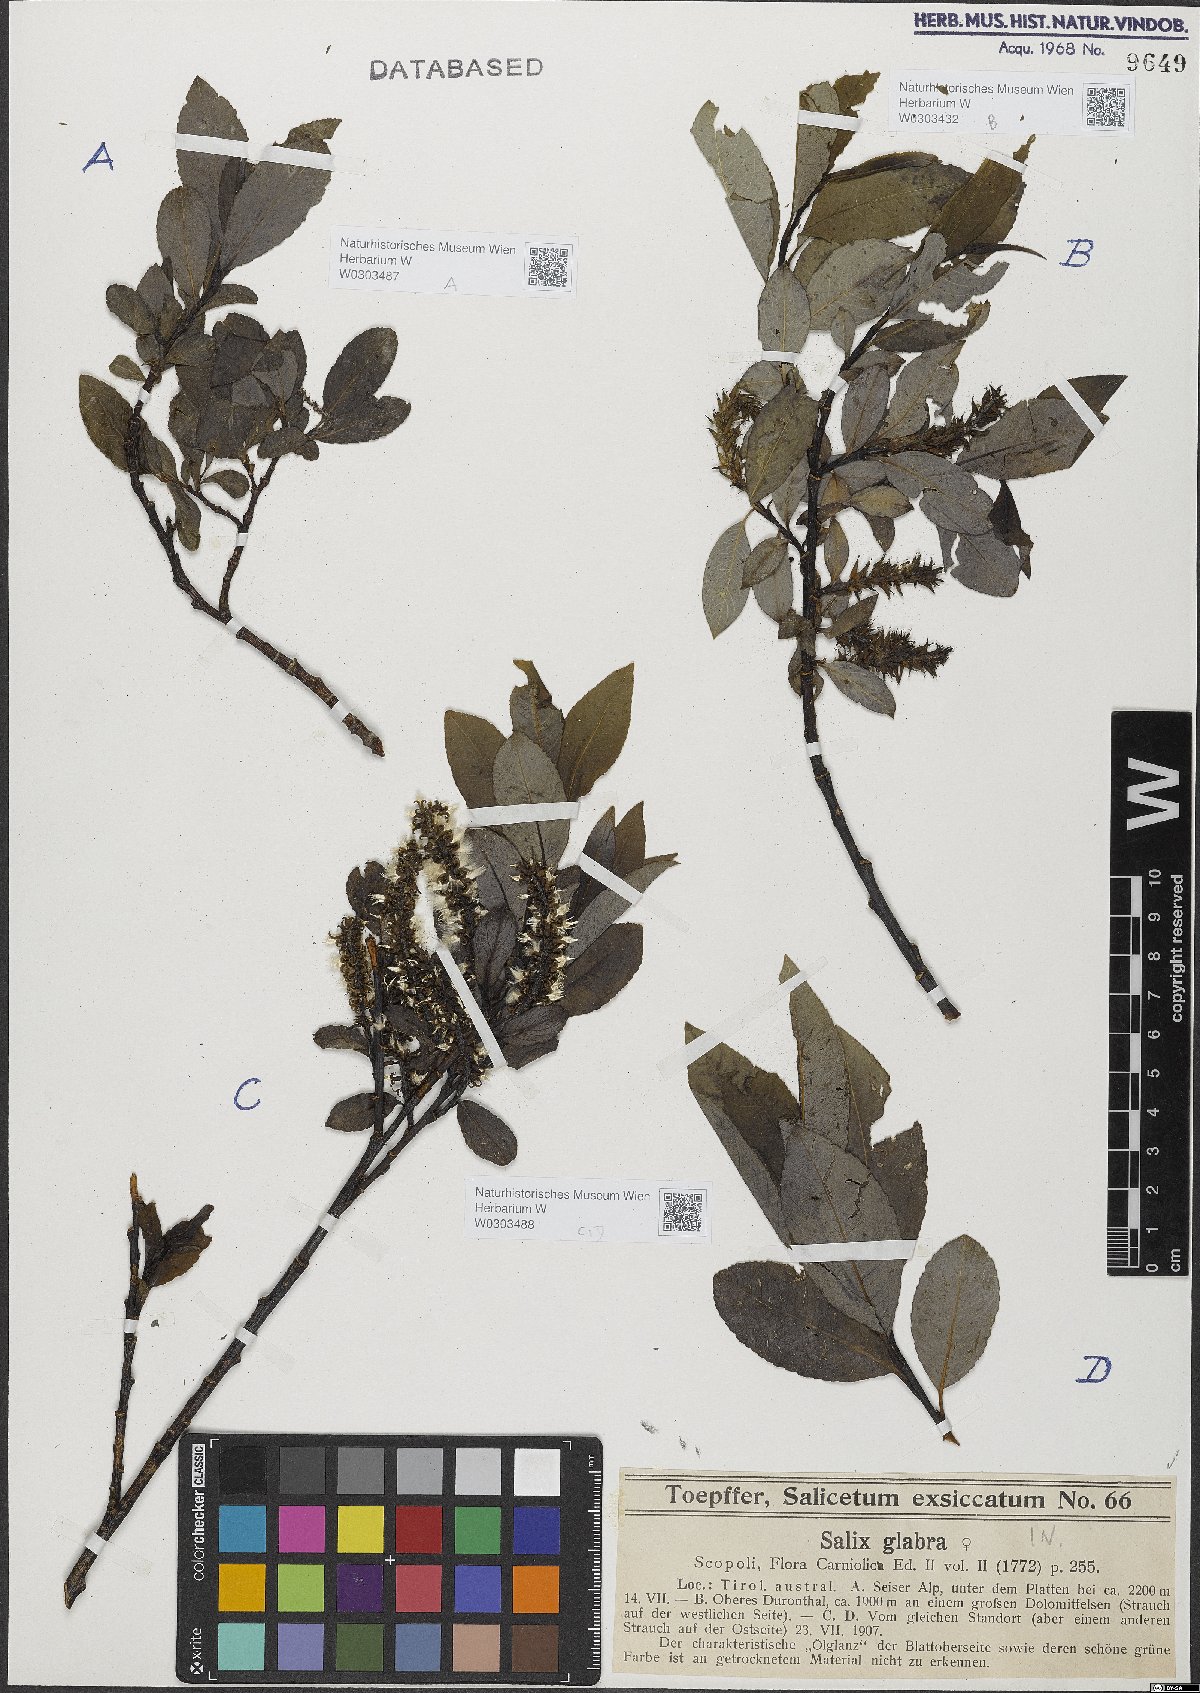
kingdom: Plantae
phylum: Tracheophyta
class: Magnoliopsida
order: Malpighiales
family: Salicaceae
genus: Salix
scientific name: Salix glabra
